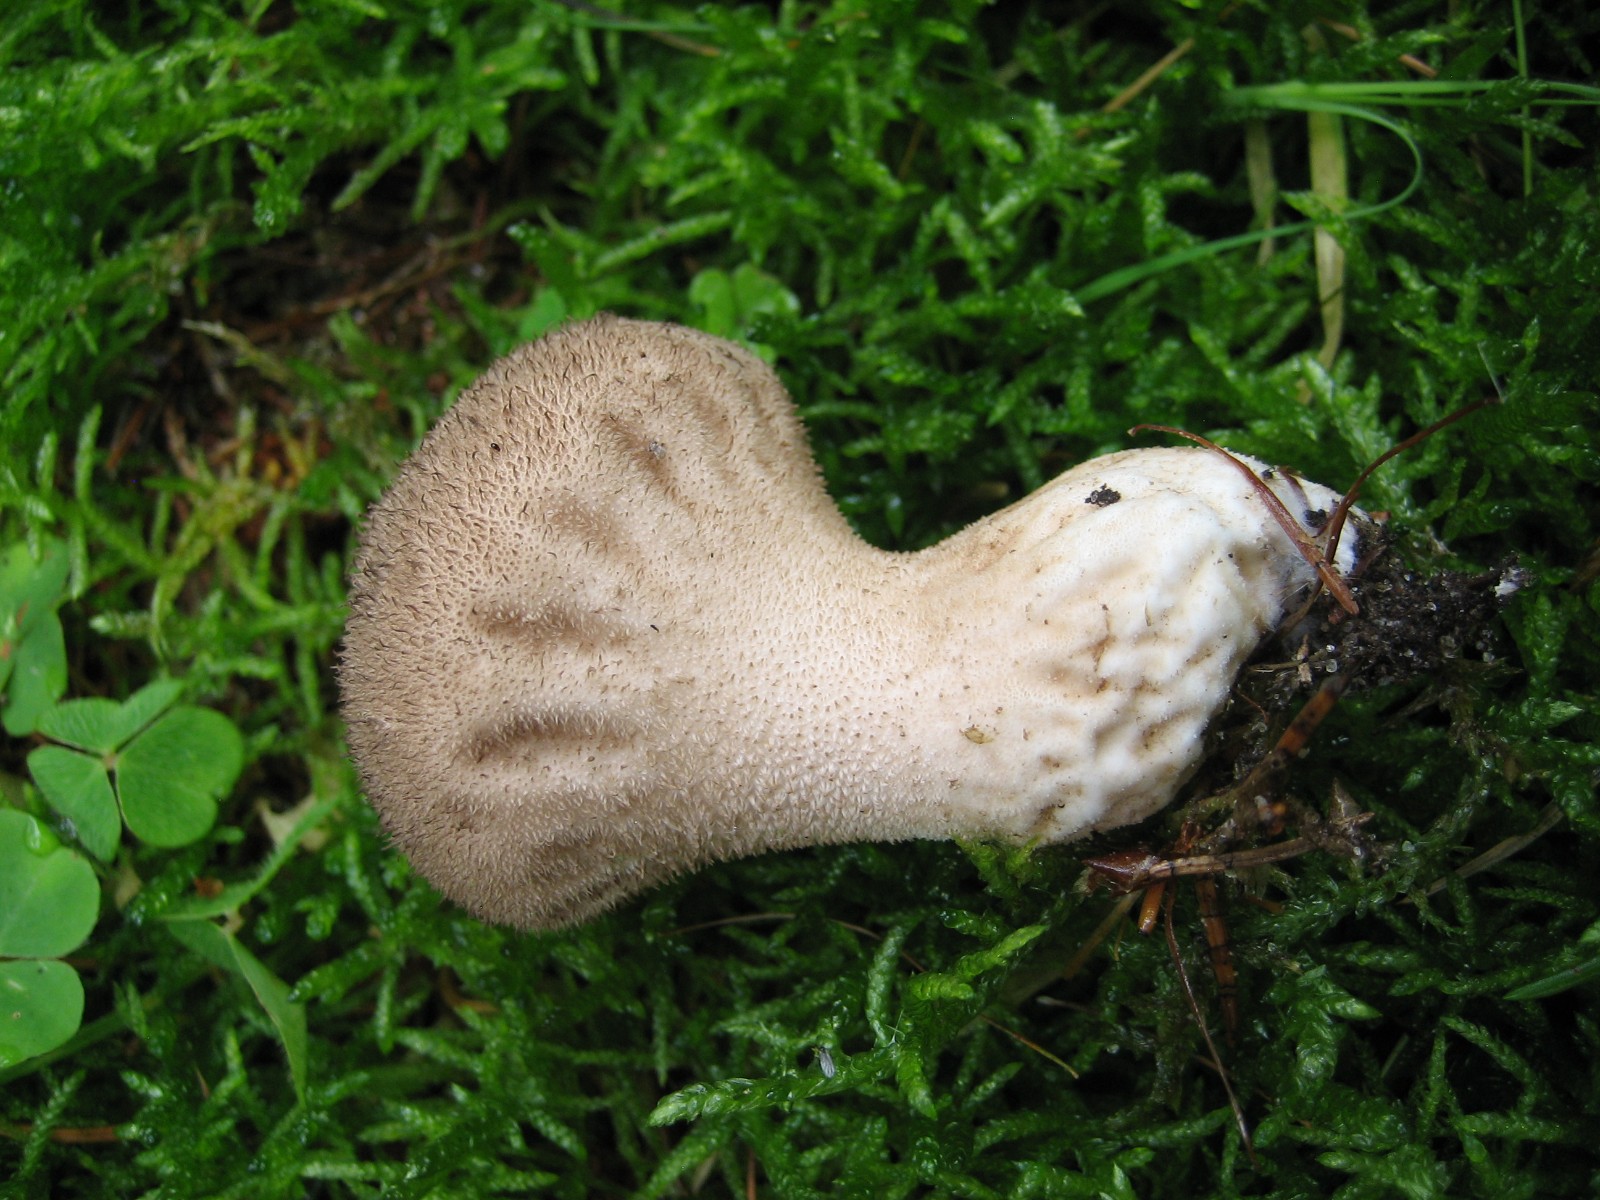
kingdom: Fungi
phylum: Basidiomycota
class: Agaricomycetes
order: Agaricales
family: Lycoperdaceae
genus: Lycoperdon
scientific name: Lycoperdon nigrescens
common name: sortagtig støvbold
